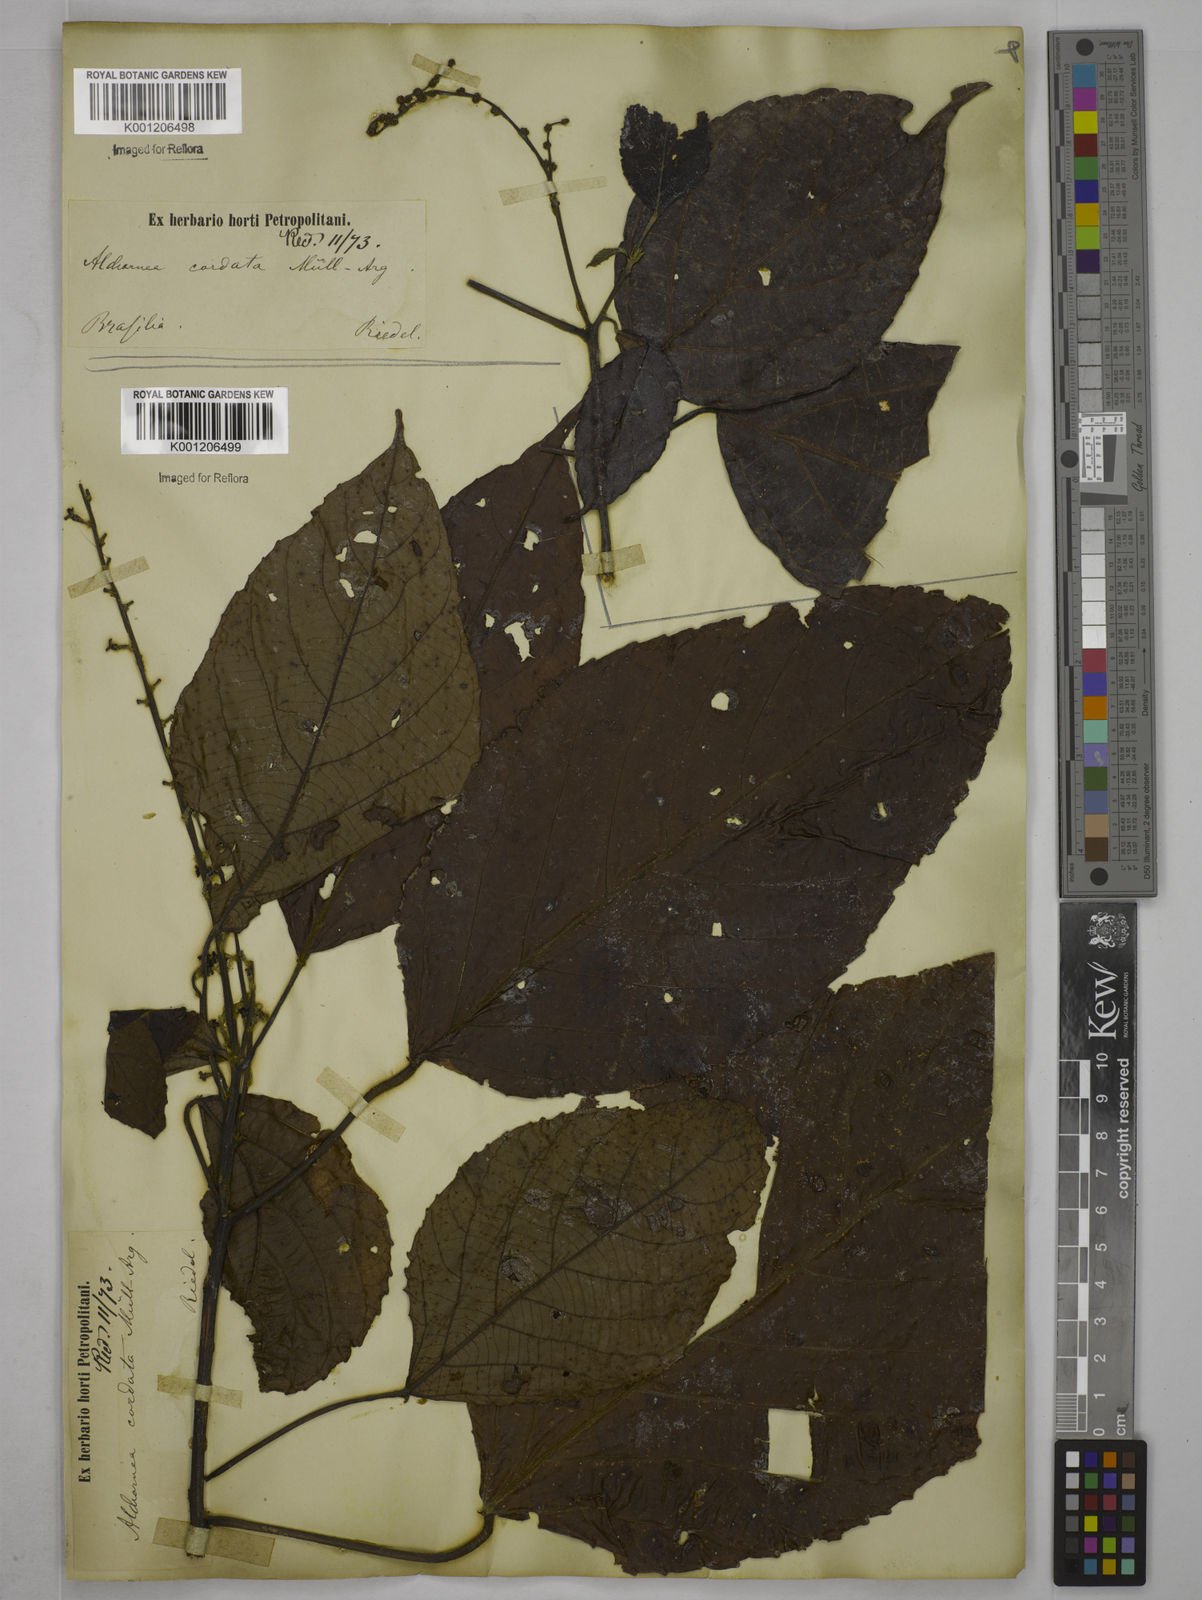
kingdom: Plantae
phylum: Tracheophyta
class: Magnoliopsida
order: Malpighiales
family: Euphorbiaceae
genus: Aparisthmium
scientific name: Aparisthmium cordatum
